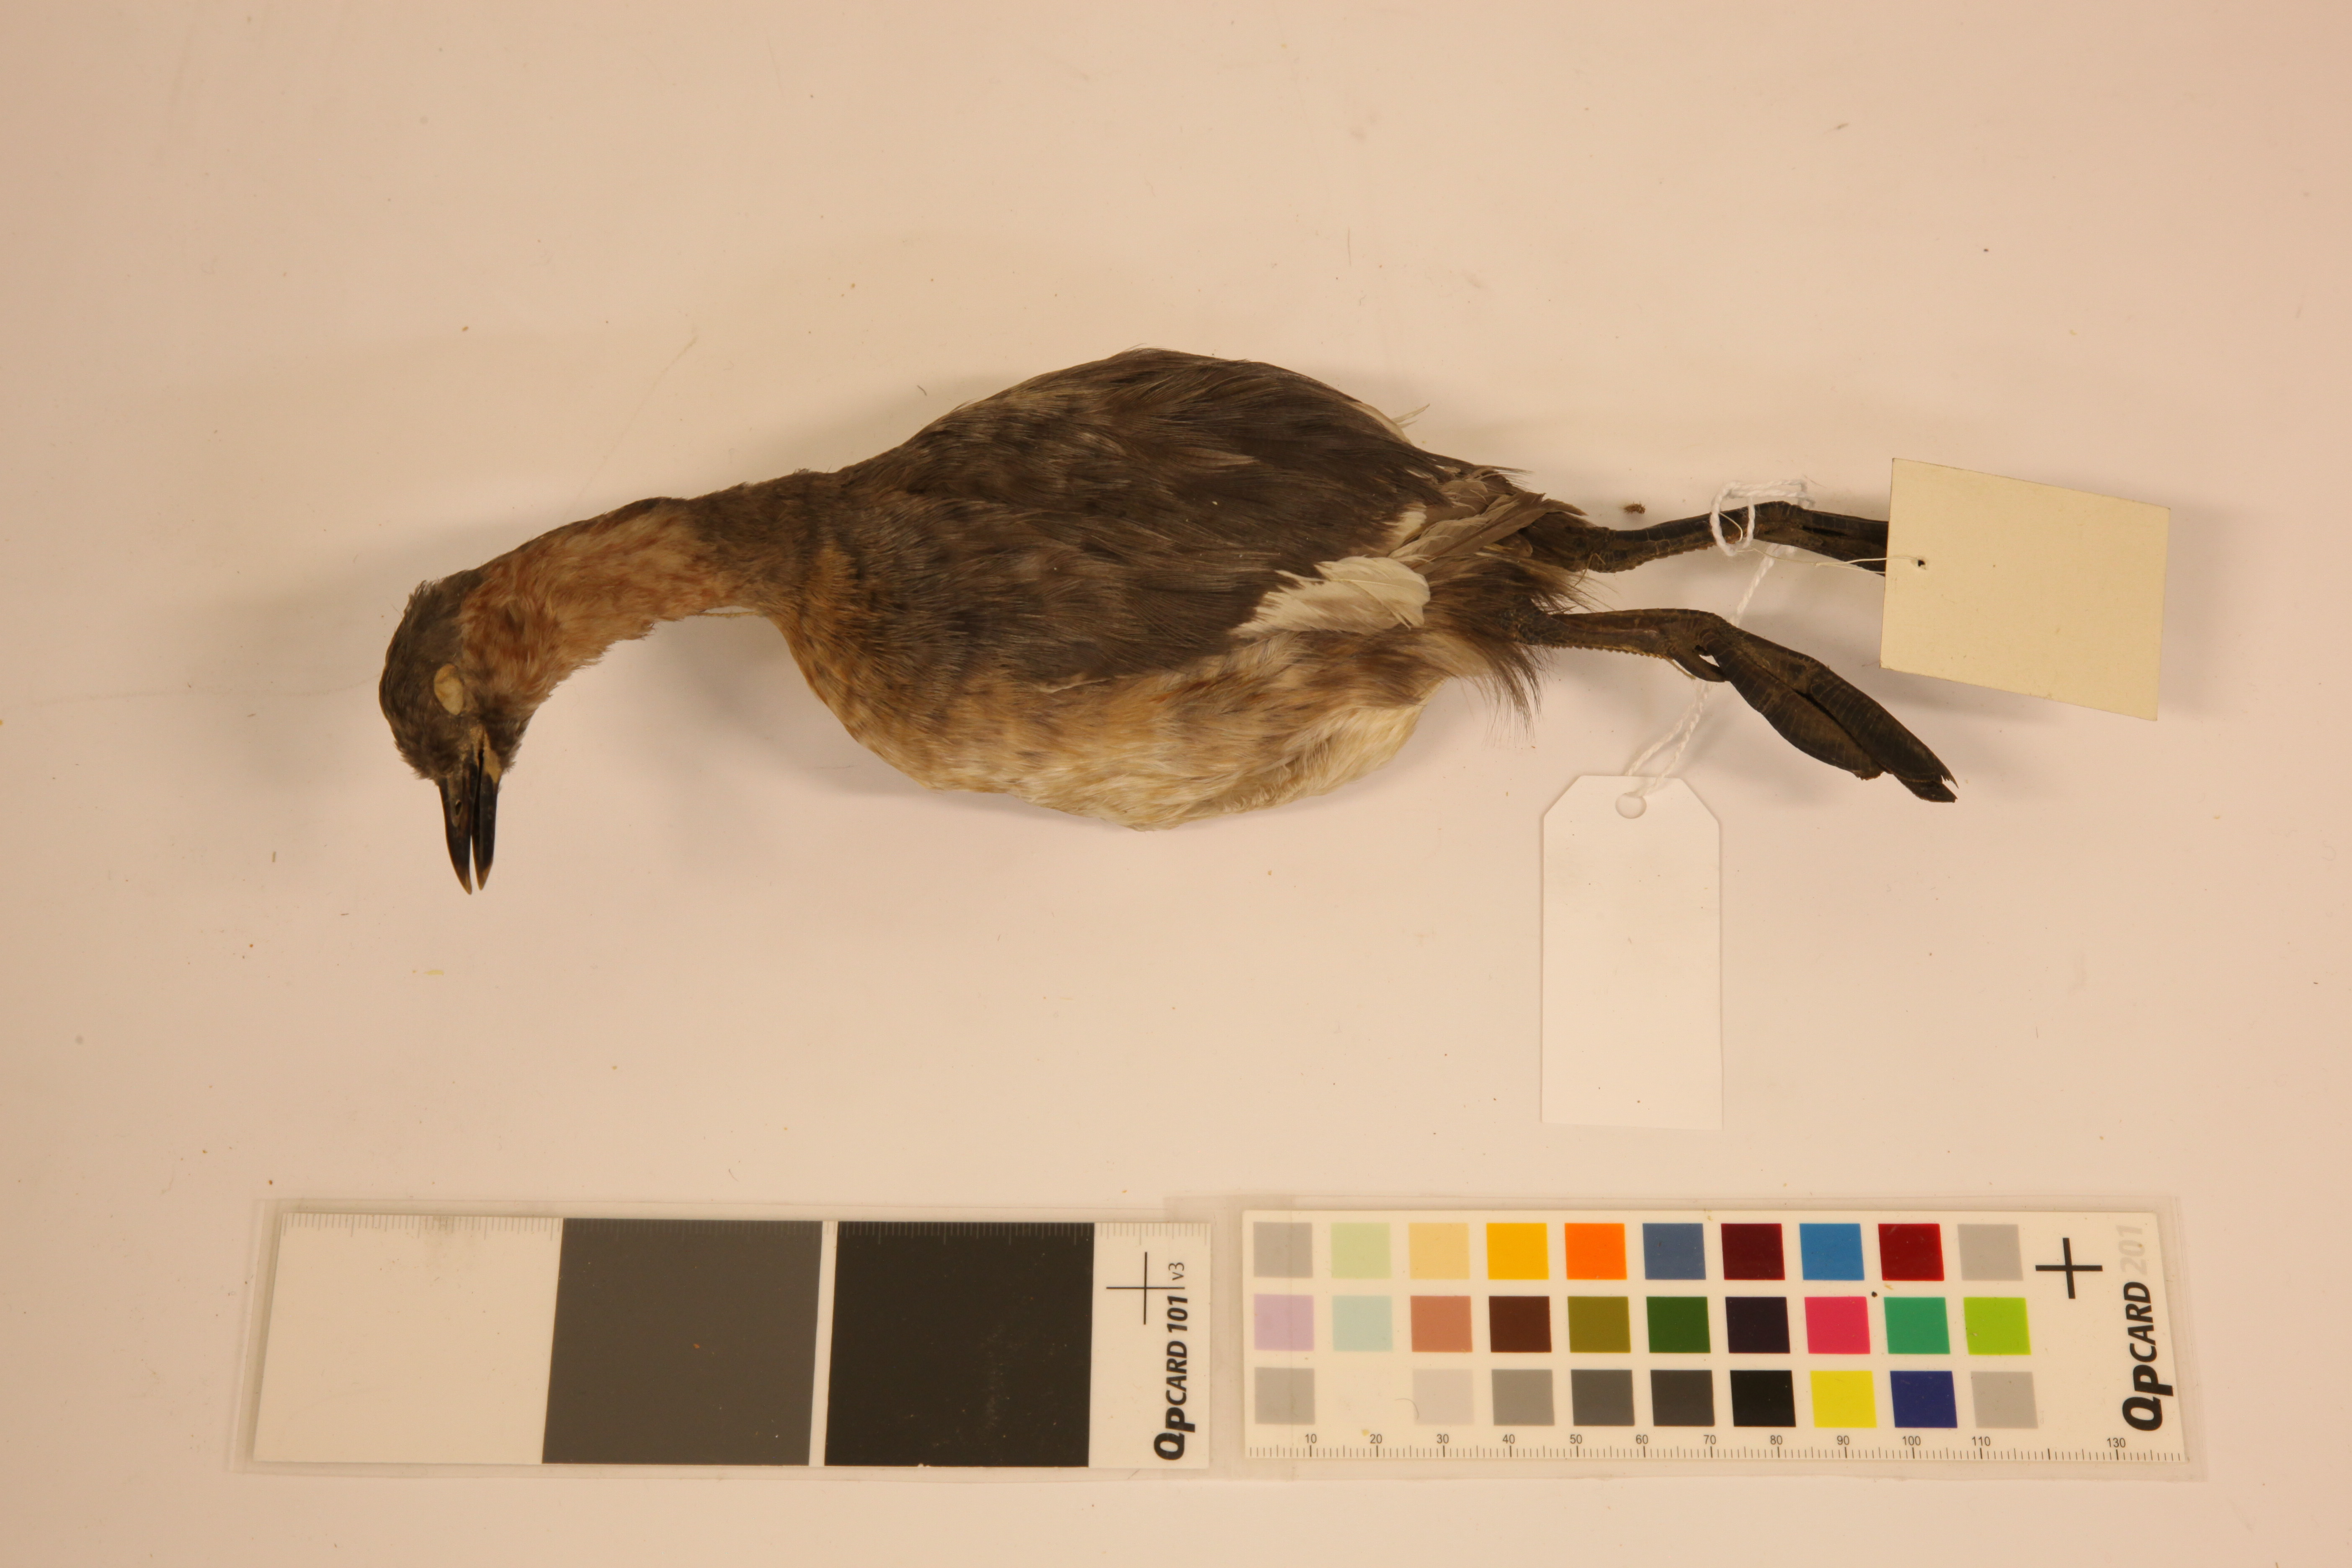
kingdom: Animalia
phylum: Chordata
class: Aves
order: Podicipediformes
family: Podicipedidae
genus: Tachybaptus
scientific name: Tachybaptus ruficollis
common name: Little grebe
